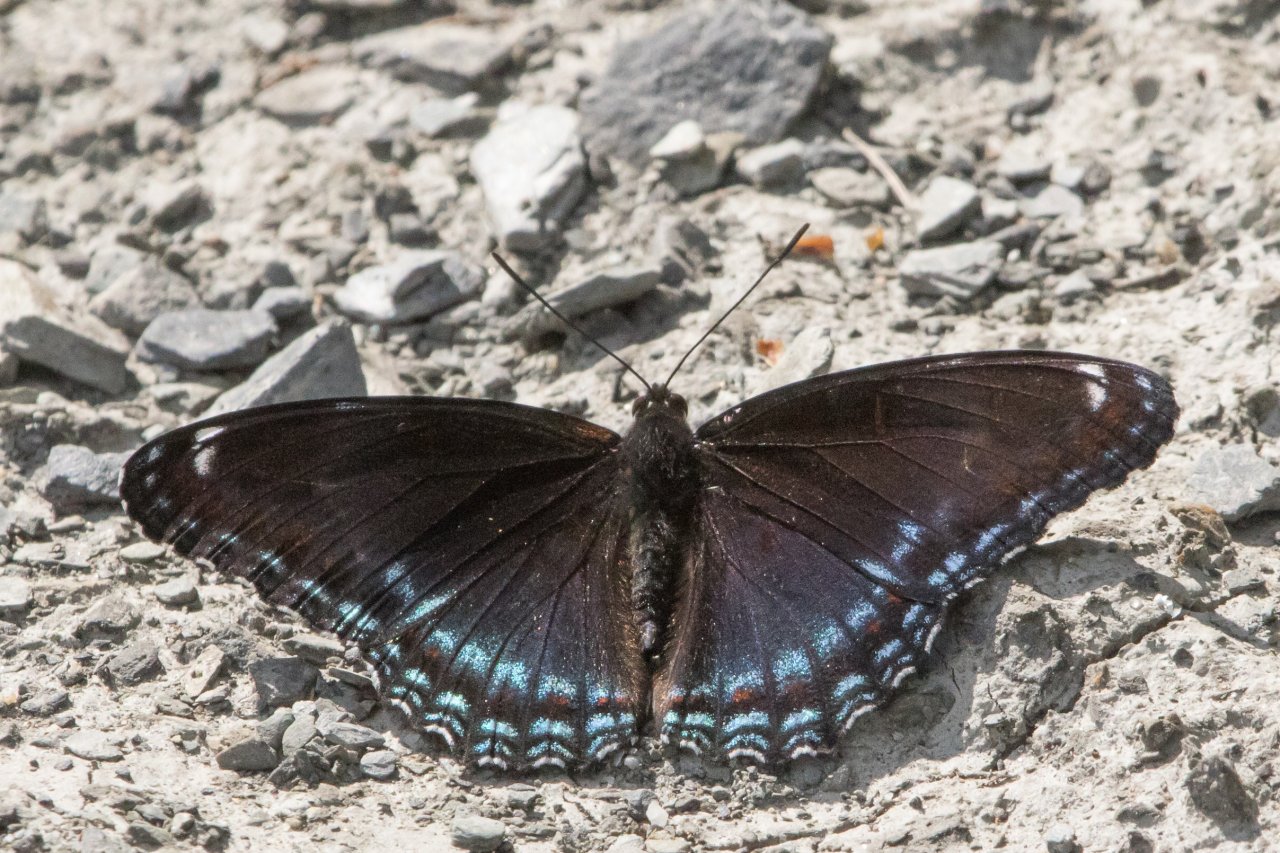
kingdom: Animalia
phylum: Arthropoda
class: Insecta
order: Lepidoptera
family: Nymphalidae
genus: Limenitis
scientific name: Limenitis arthemis
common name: Red-spotted Admiral
